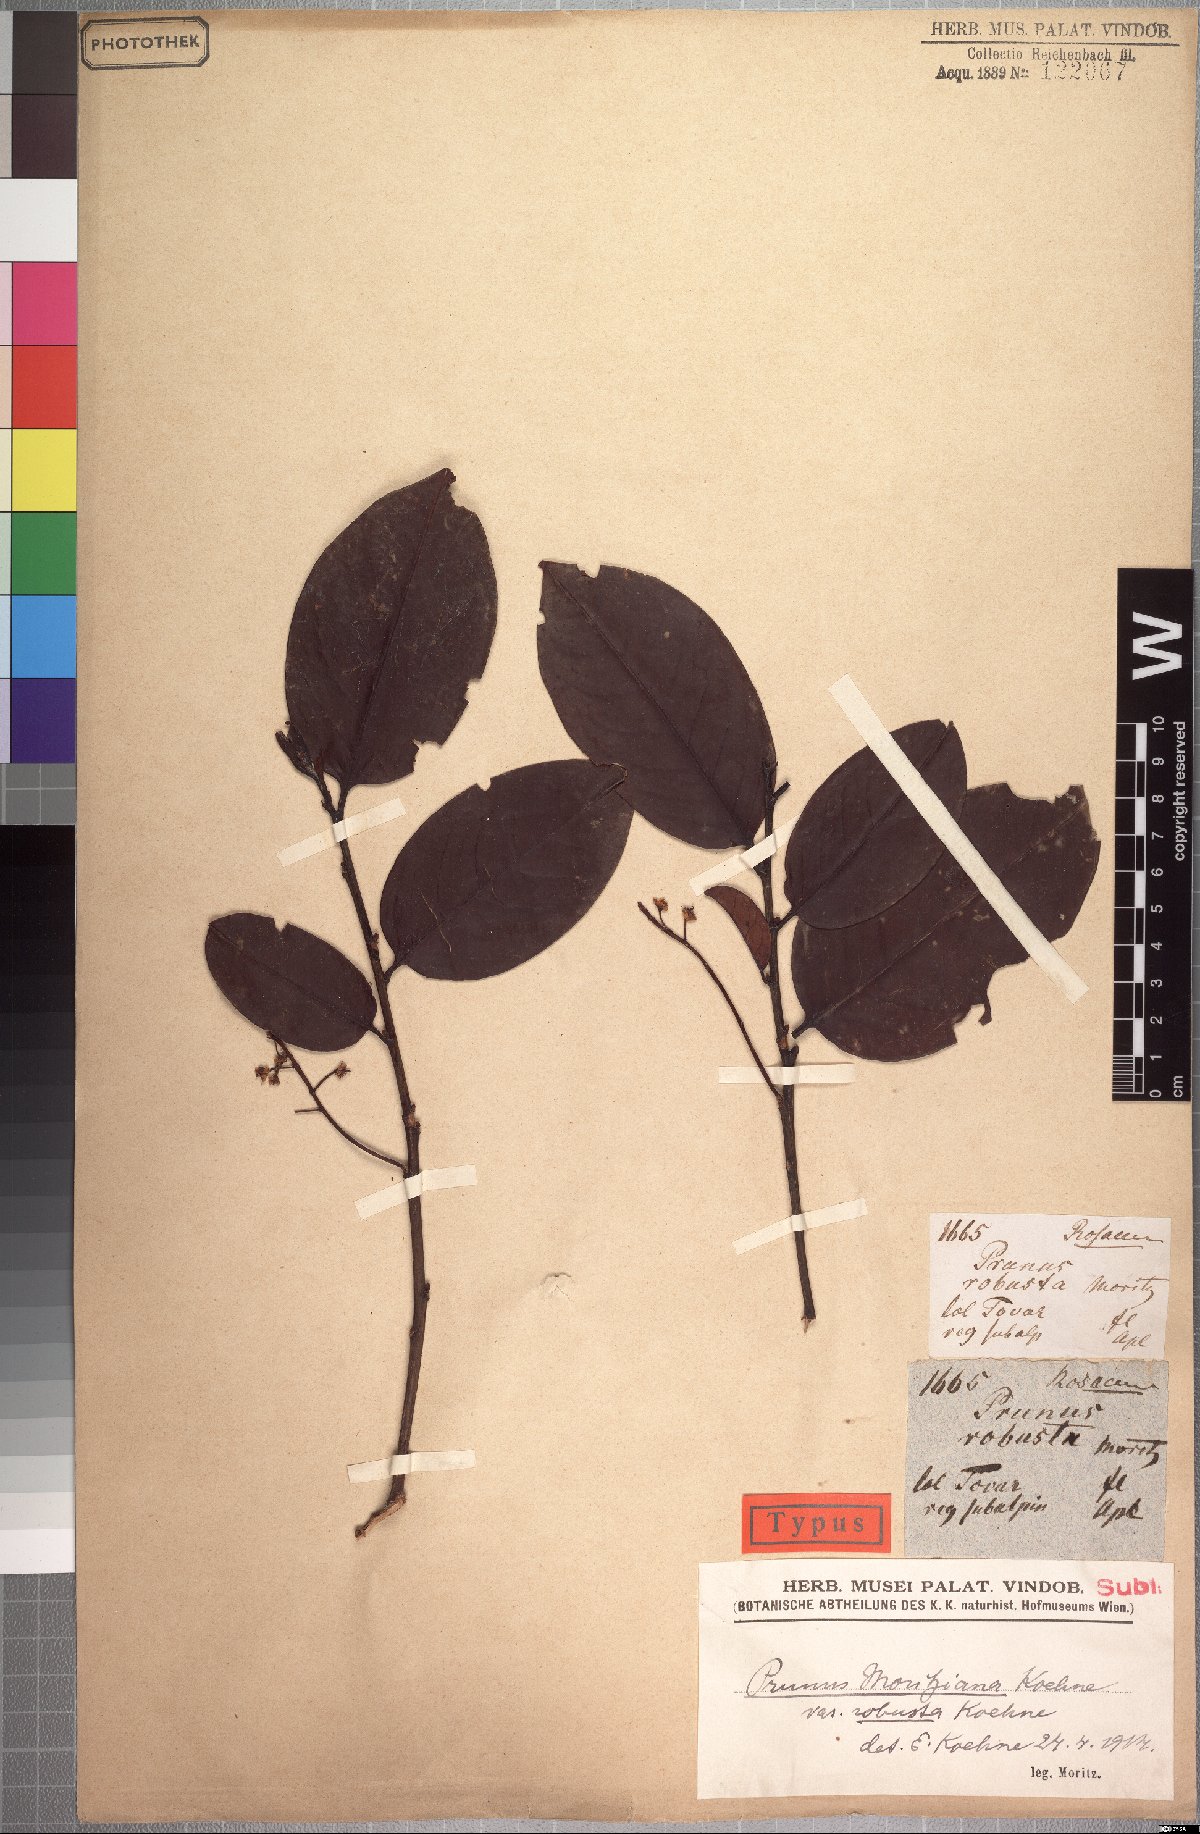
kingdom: Plantae
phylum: Tracheophyta
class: Magnoliopsida
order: Rosales
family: Rosaceae
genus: Prunus
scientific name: Prunus moritziana
